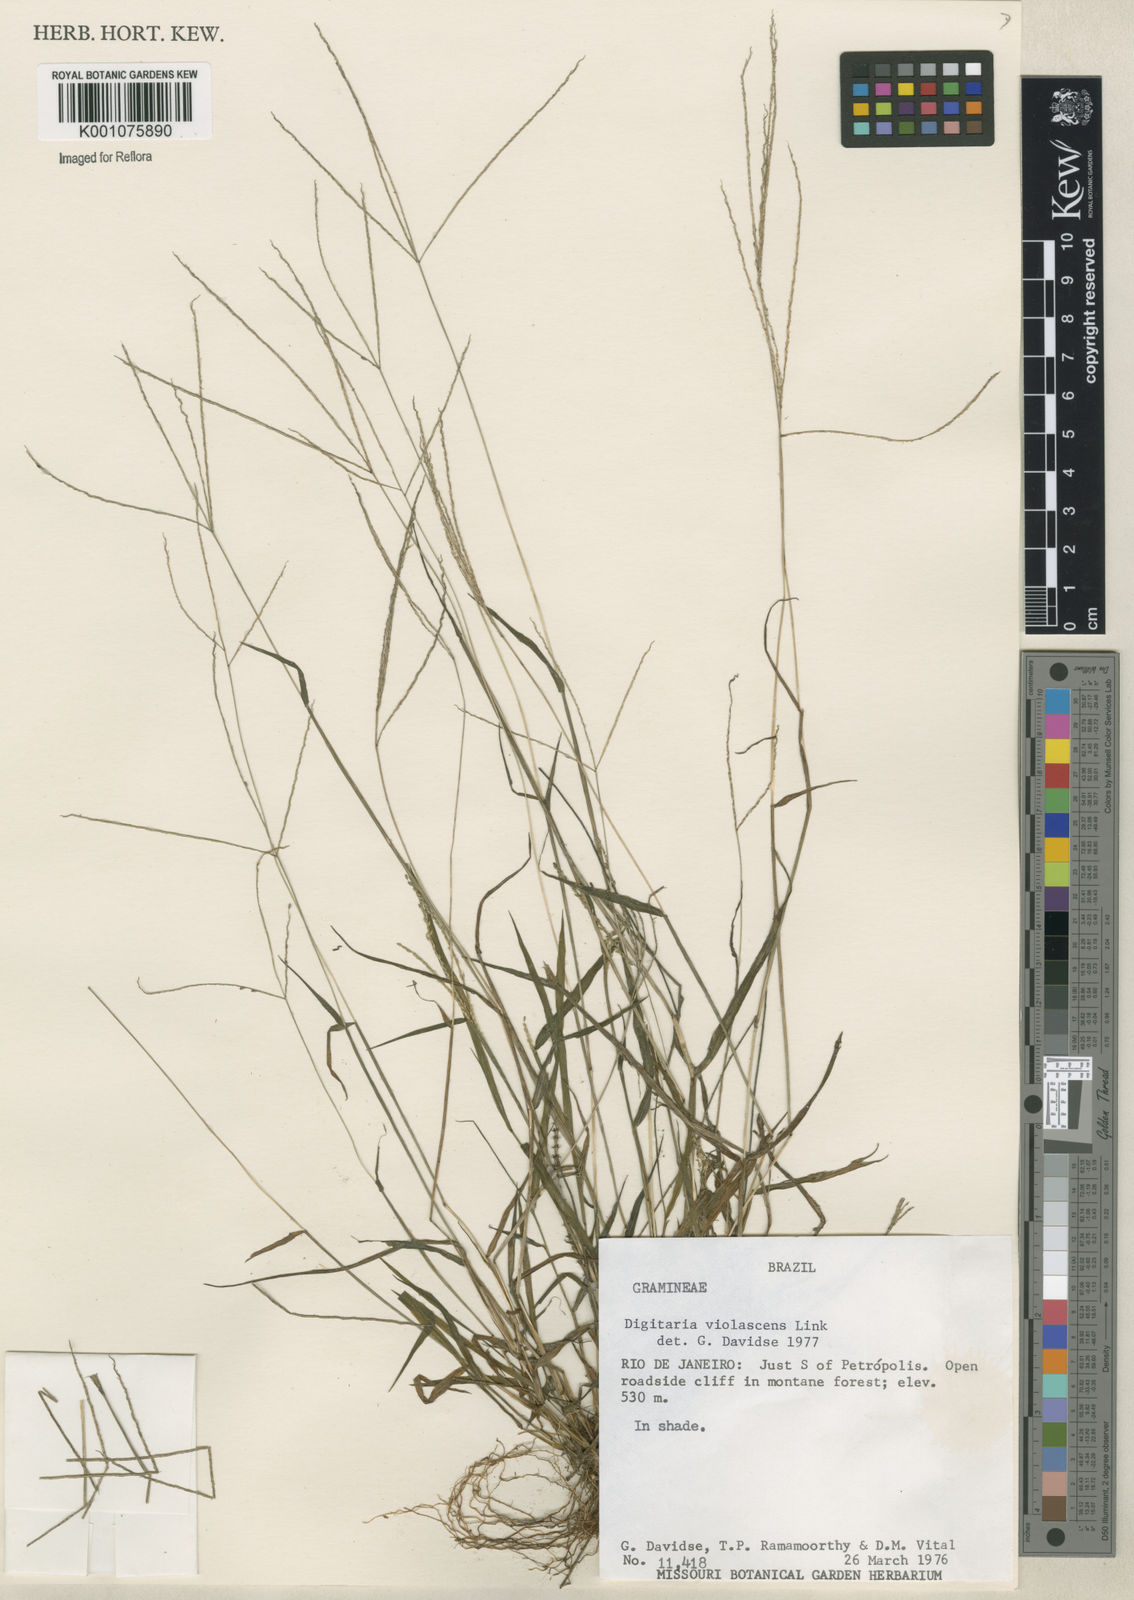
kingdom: Plantae
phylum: Tracheophyta
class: Liliopsida
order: Poales
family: Poaceae
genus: Digitaria
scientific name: Digitaria violascens
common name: Violet crabgrass
